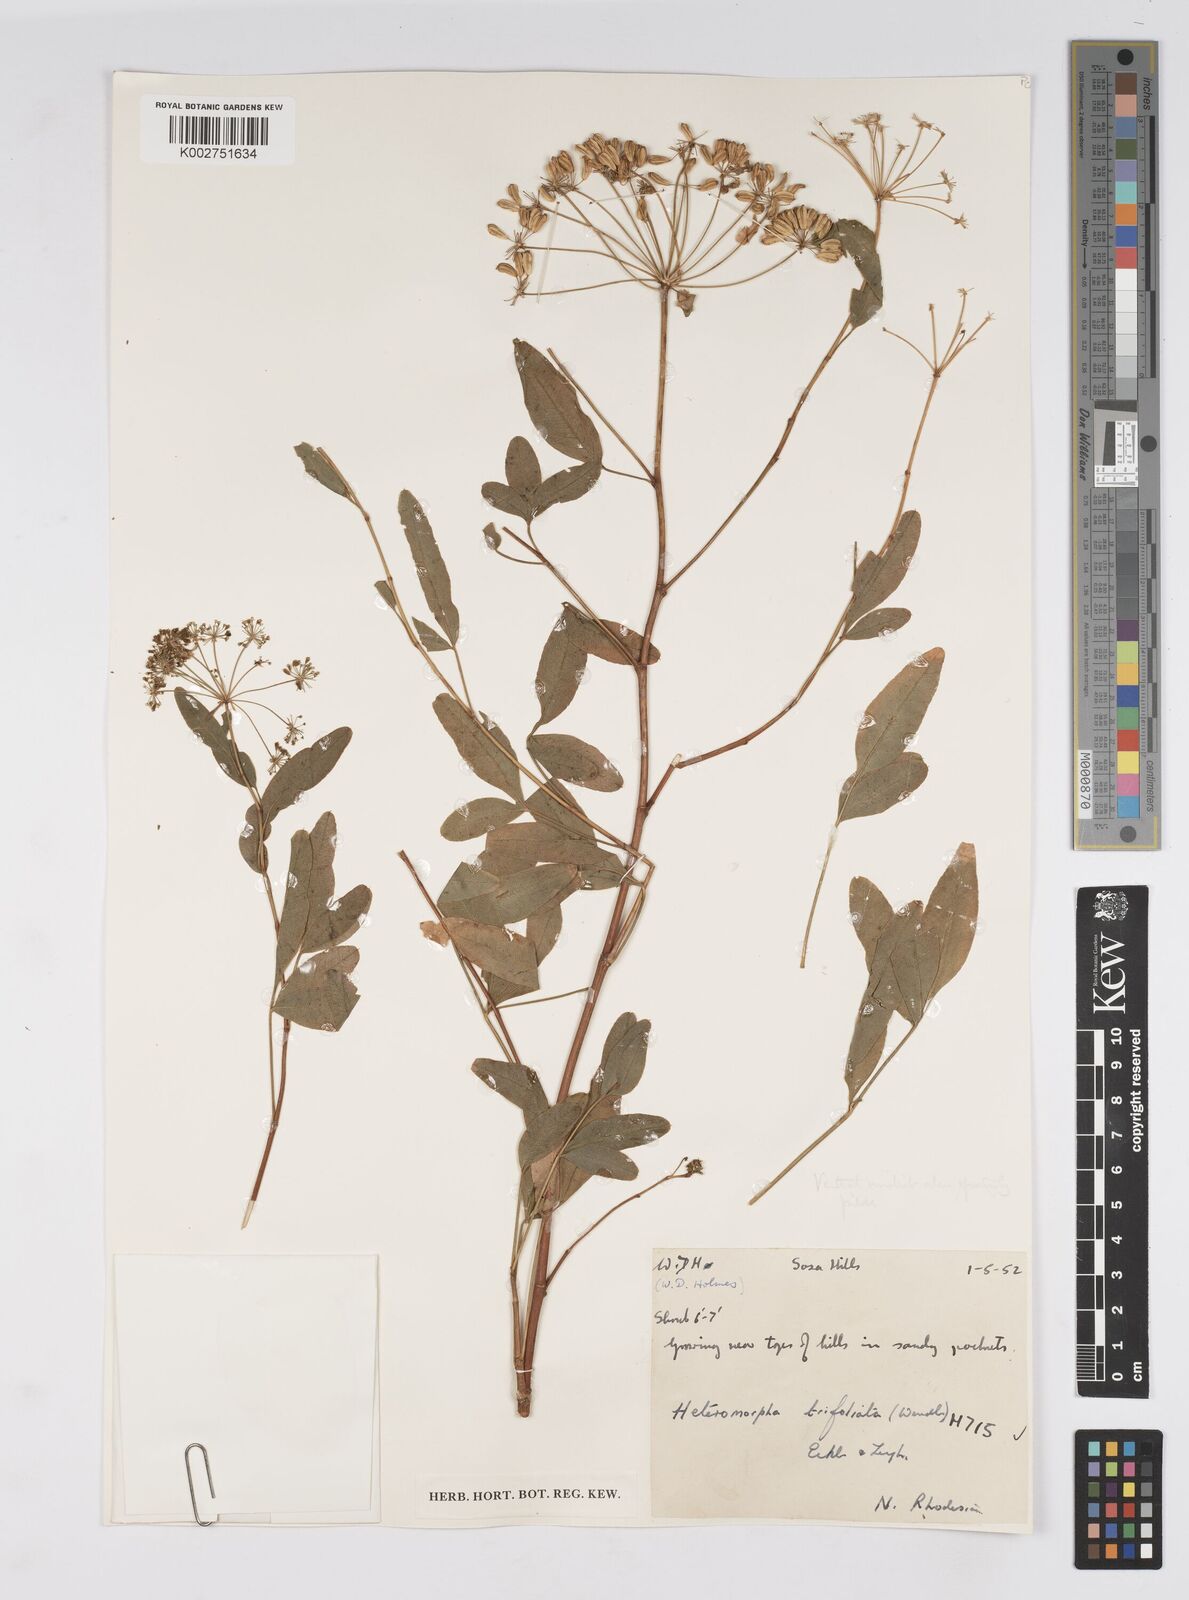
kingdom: Plantae
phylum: Tracheophyta
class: Magnoliopsida
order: Apiales
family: Apiaceae
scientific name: Apiaceae
